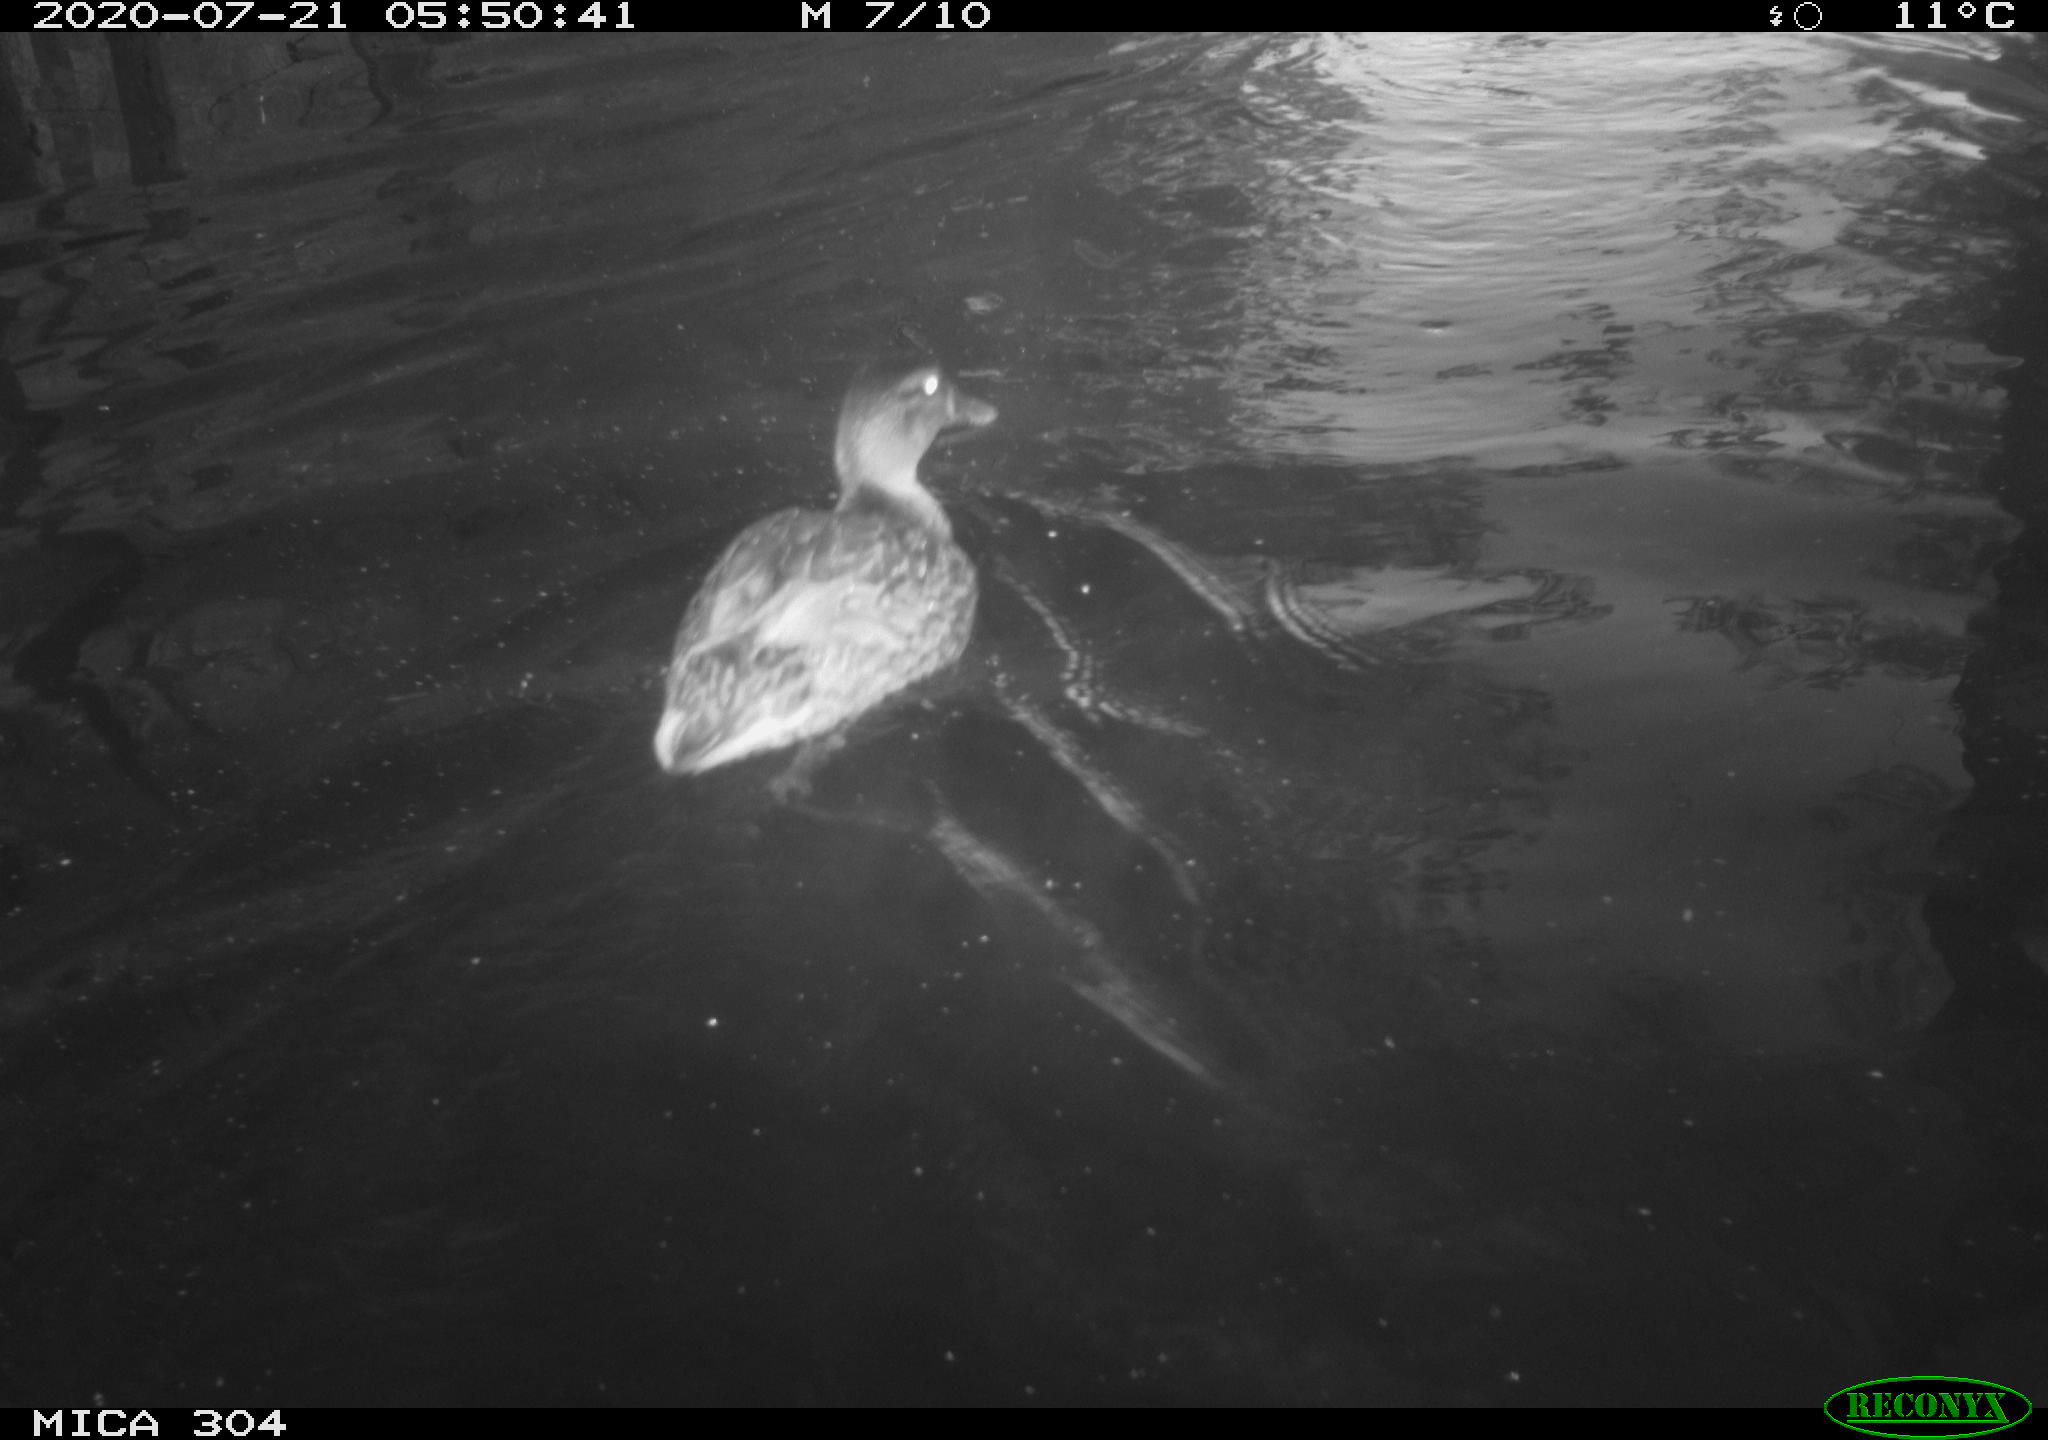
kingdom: Animalia
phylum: Chordata
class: Aves
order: Anseriformes
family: Anatidae
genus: Anas
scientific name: Anas platyrhynchos
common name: Mallard
